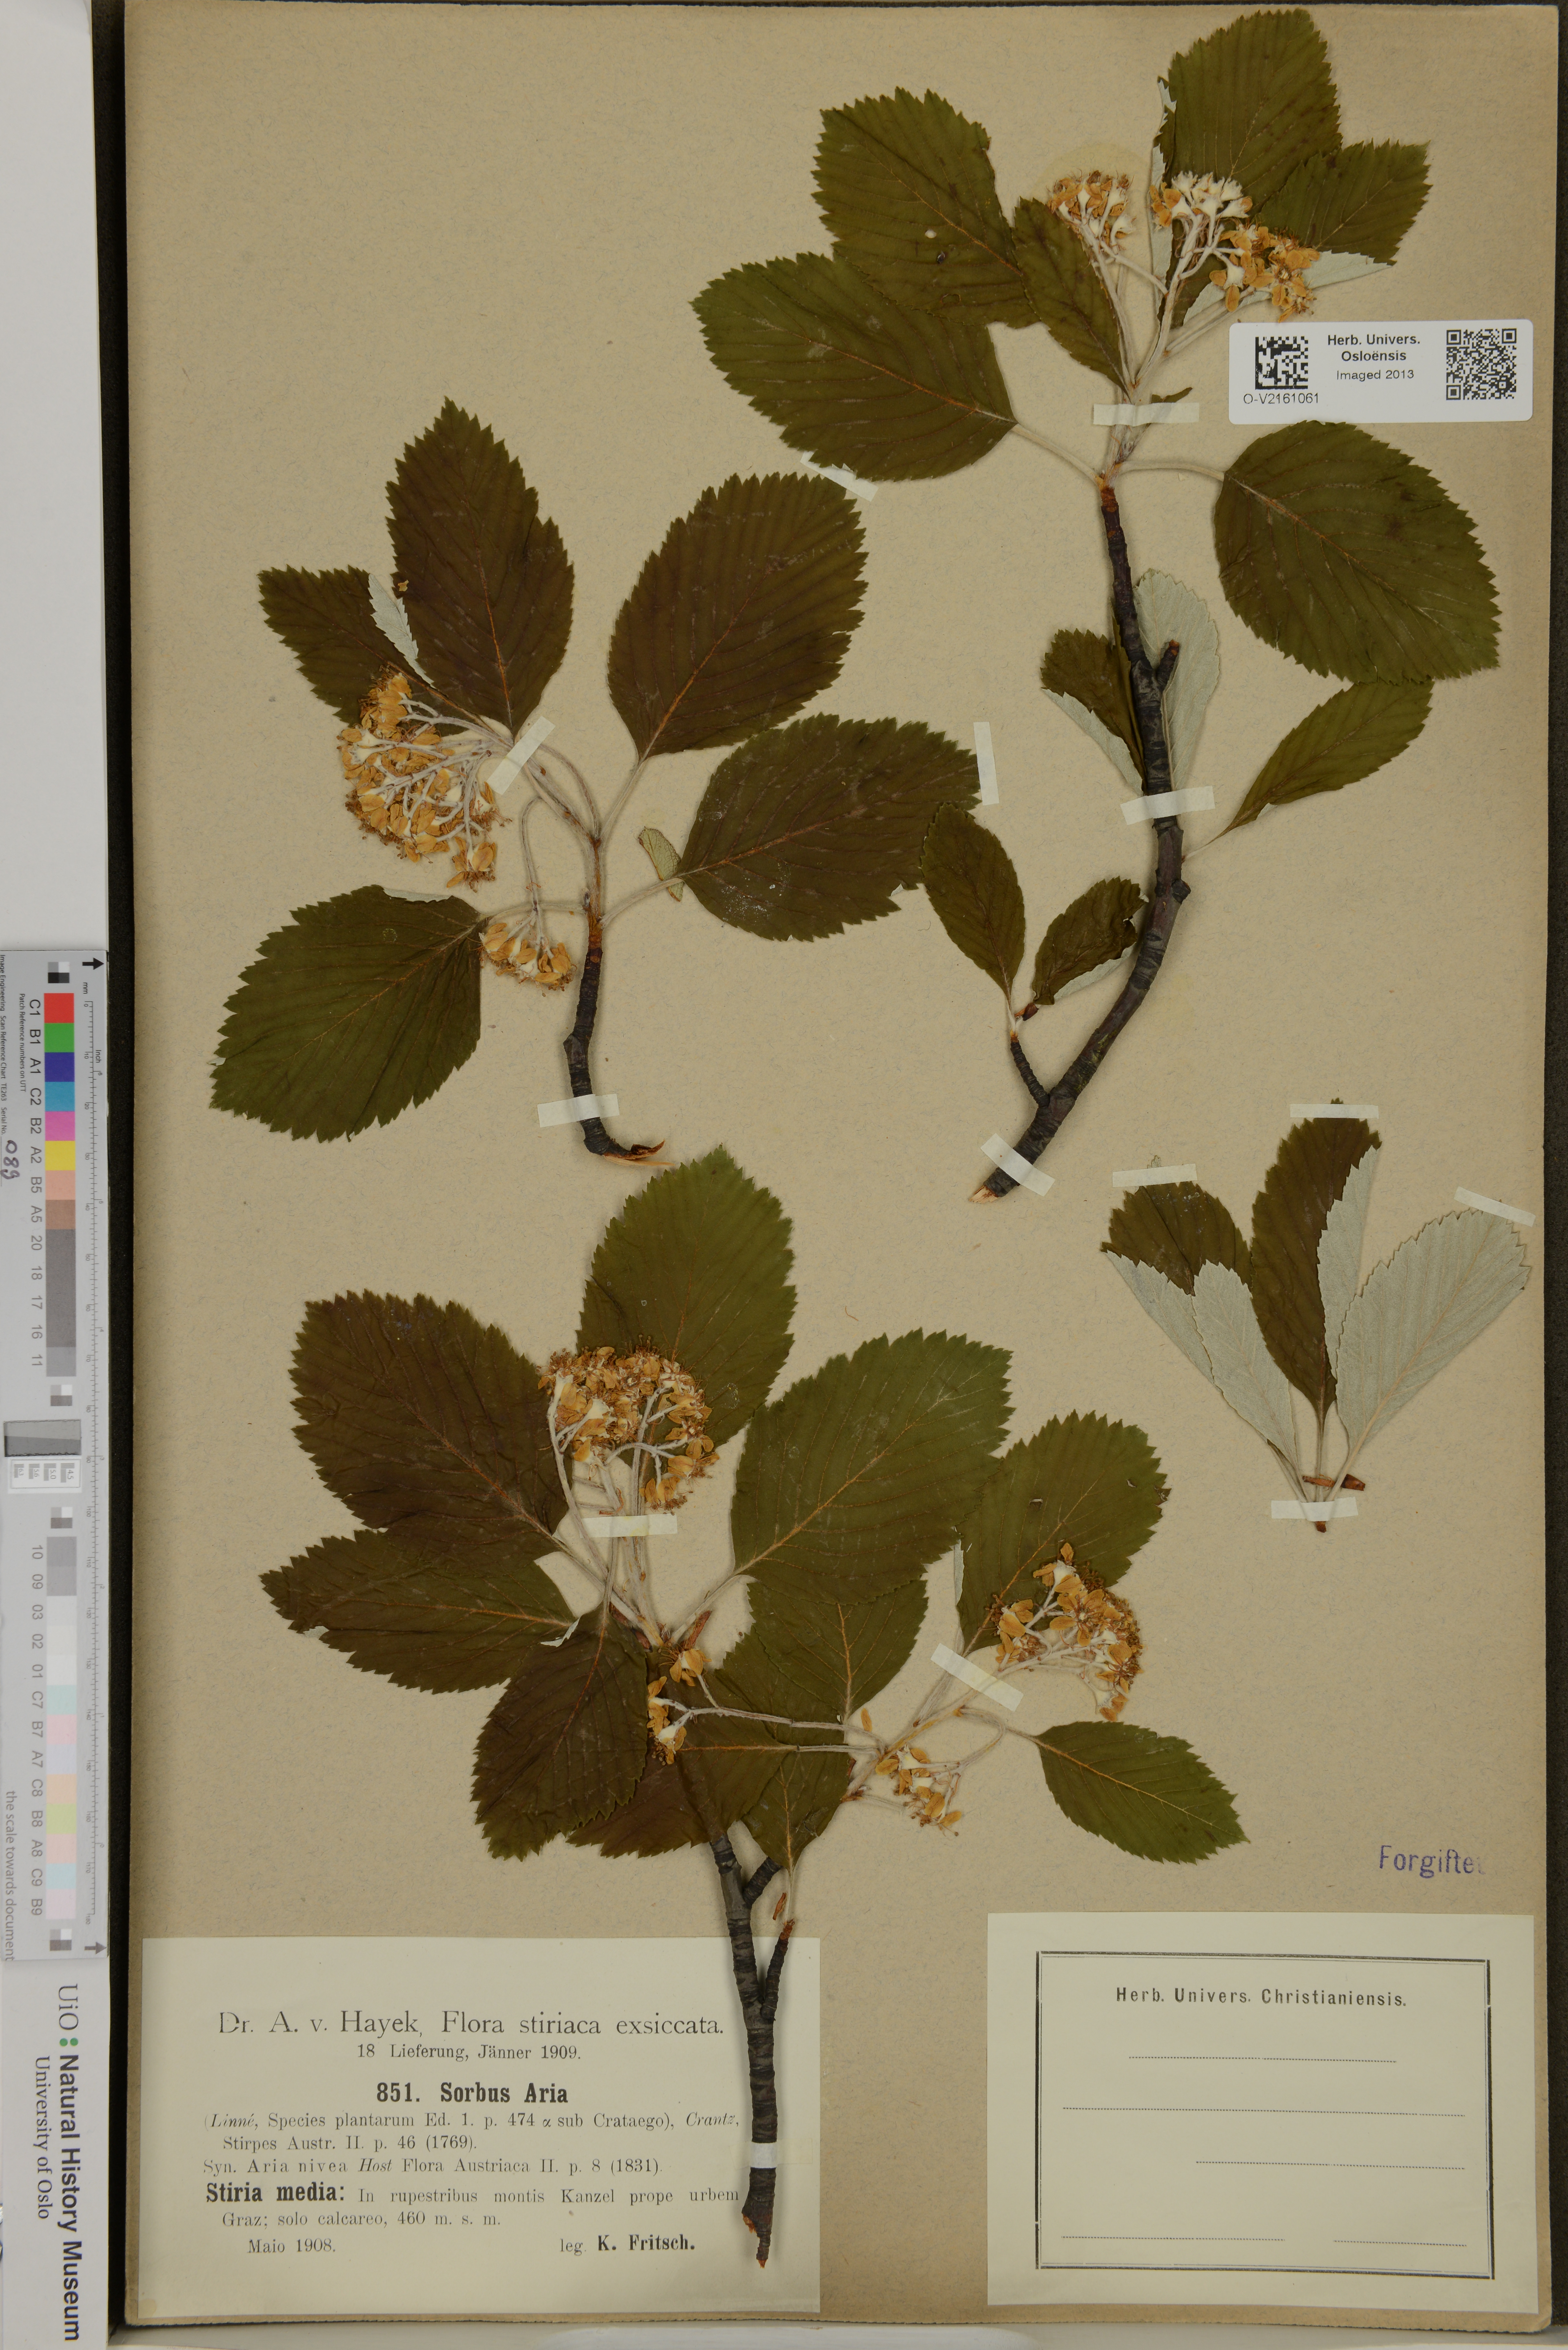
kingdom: Plantae
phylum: Tracheophyta
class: Magnoliopsida
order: Rosales
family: Rosaceae
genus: Sorbus
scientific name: Sorbus aria
